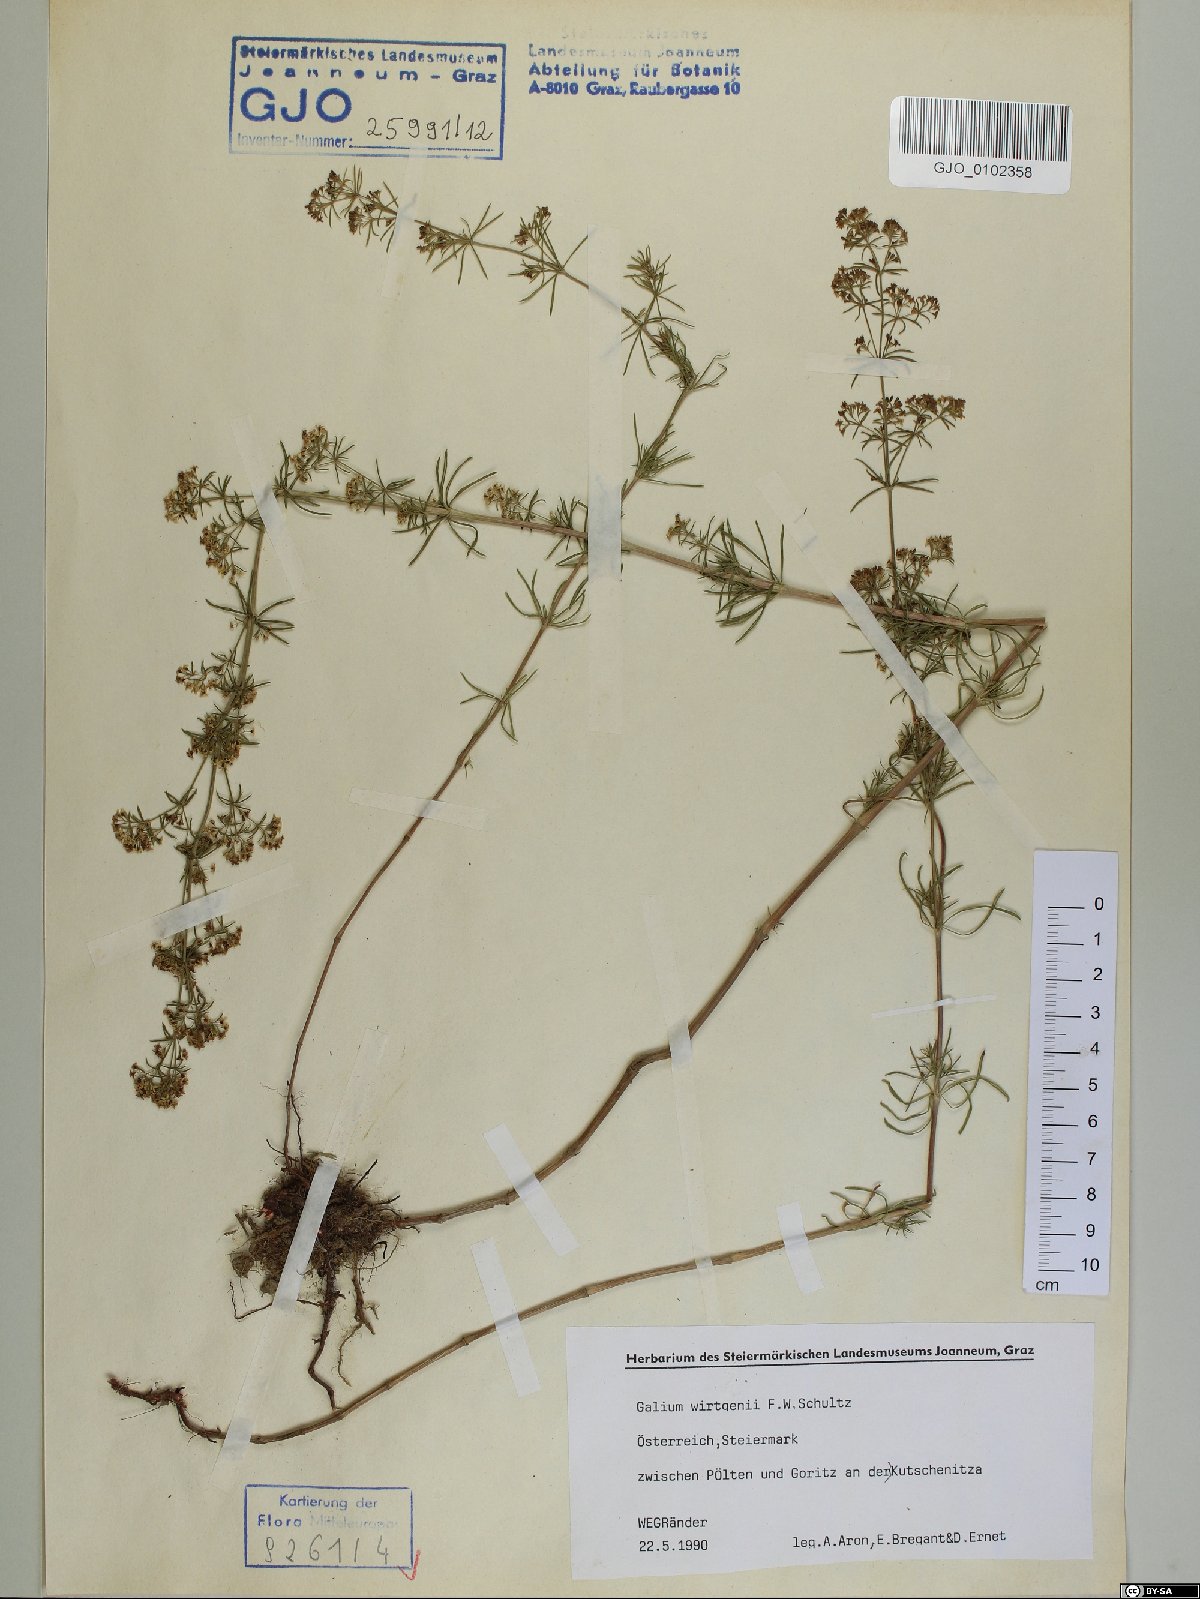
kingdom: Plantae
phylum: Tracheophyta
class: Magnoliopsida
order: Gentianales
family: Rubiaceae
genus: Galium
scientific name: Galium verum
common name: Lady's bedstraw
